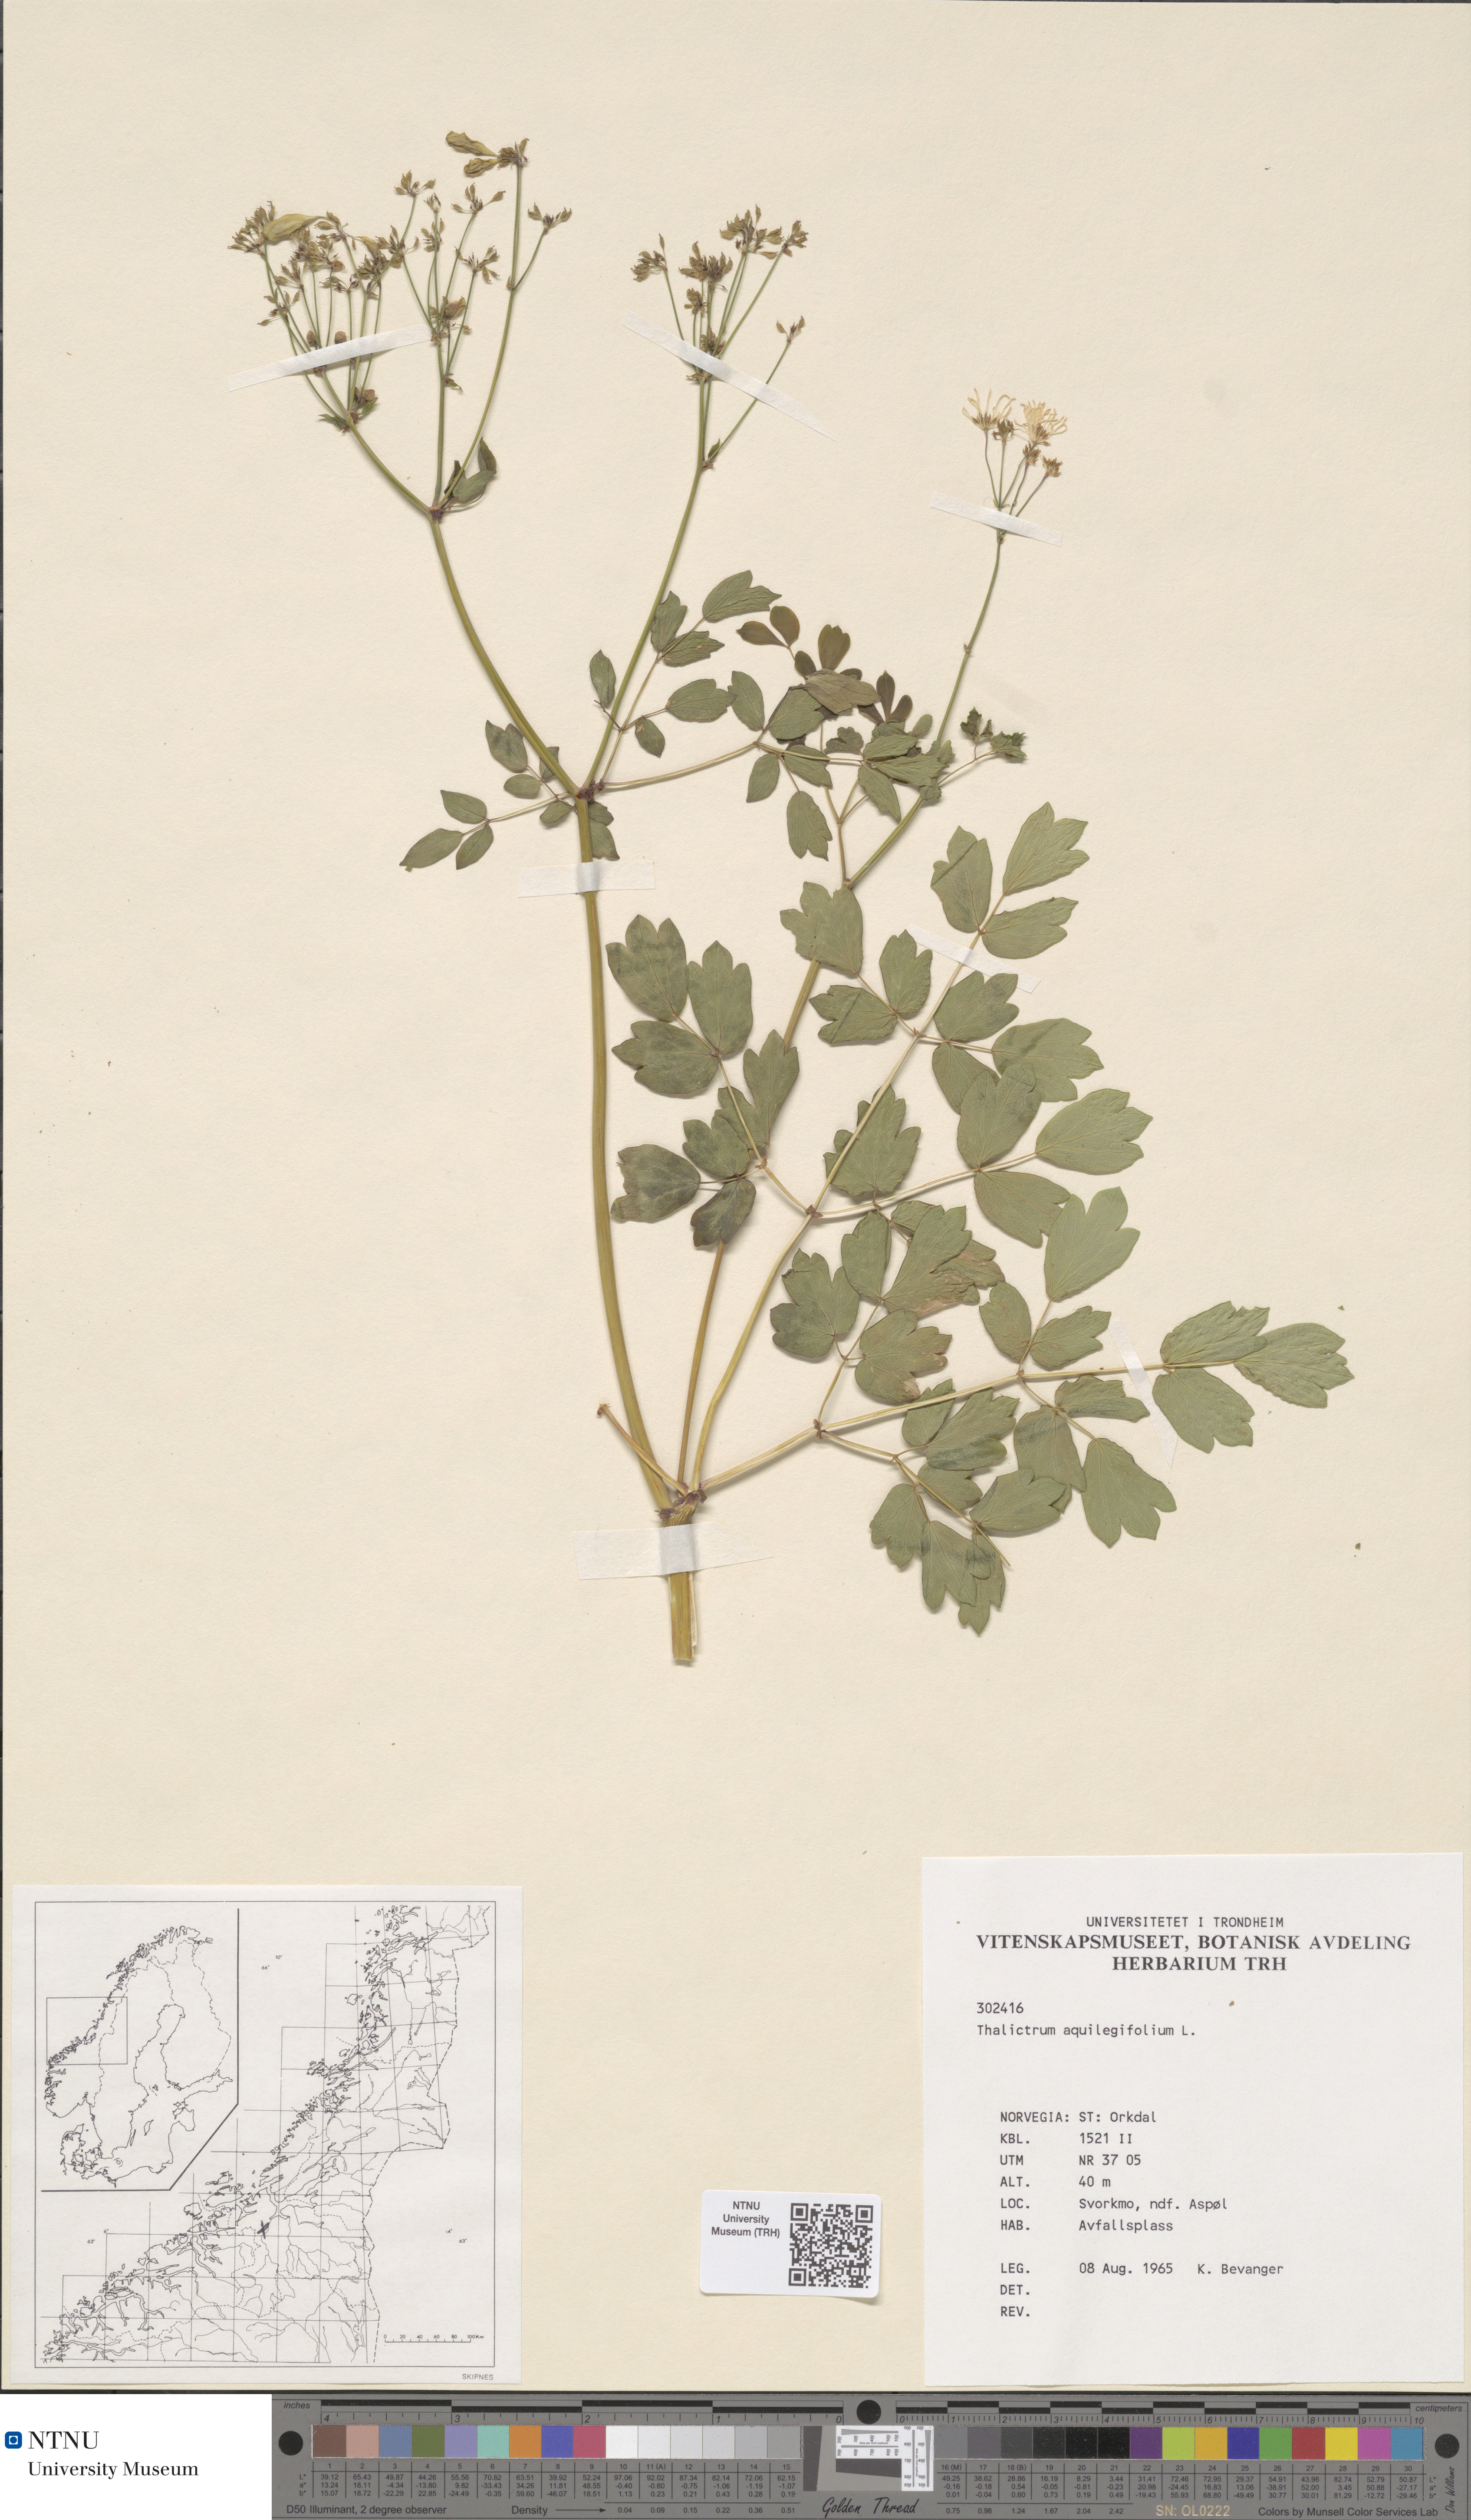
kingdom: Plantae
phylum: Tracheophyta
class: Magnoliopsida
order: Ranunculales
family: Ranunculaceae
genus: Thalictrum
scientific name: Thalictrum aquilegiifolium
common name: French meadow-rue
